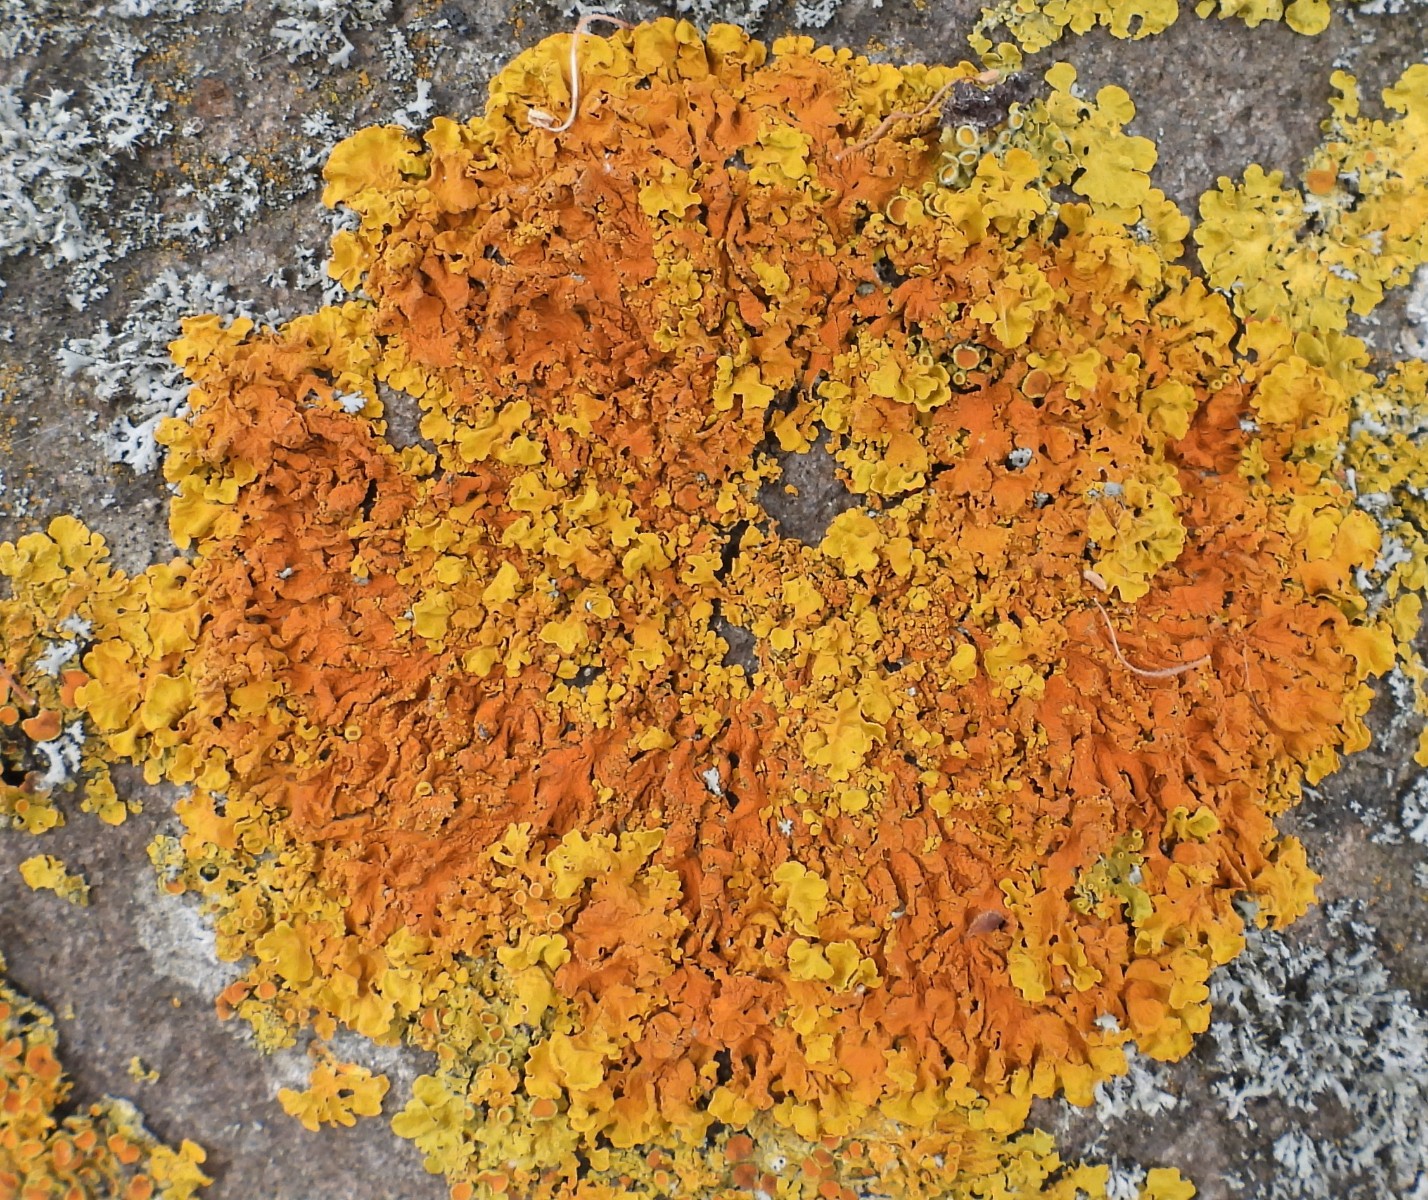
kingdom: Fungi
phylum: Ascomycota
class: Lecanoromycetes
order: Teloschistales
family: Teloschistaceae
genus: Xanthoria
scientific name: Xanthoria aureola
